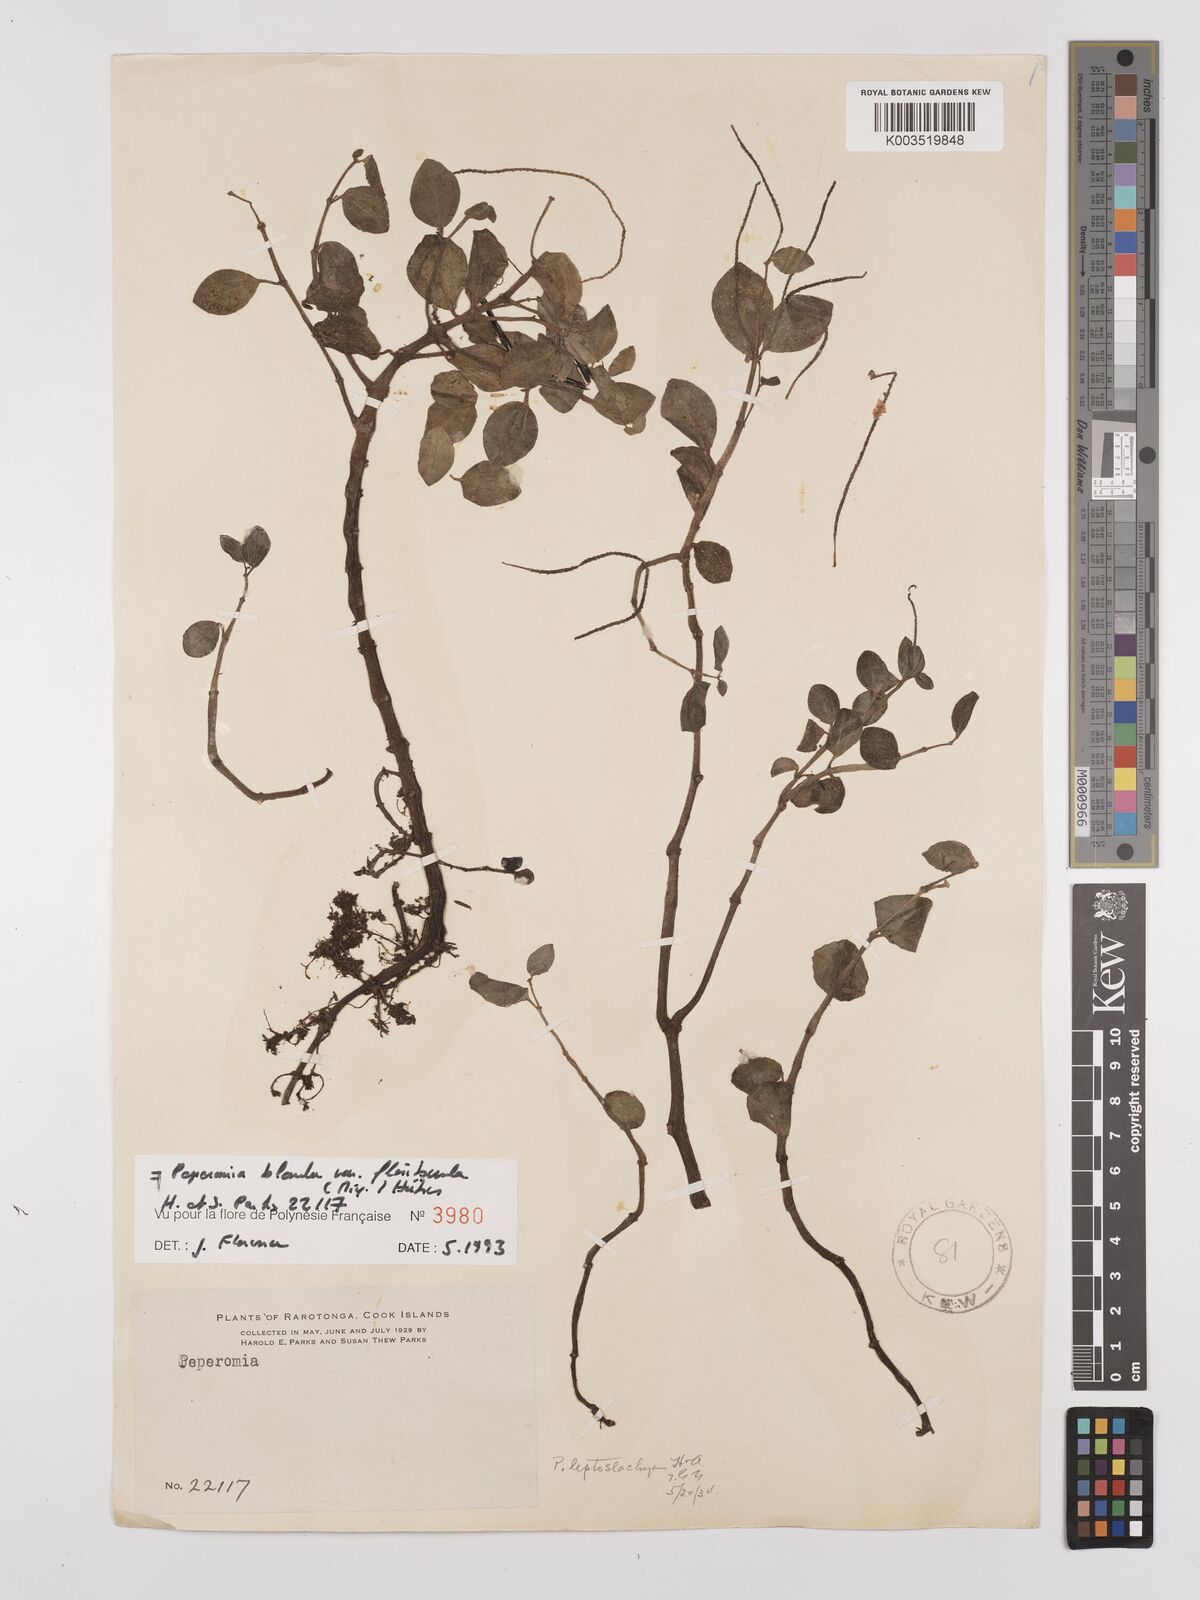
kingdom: Plantae
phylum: Tracheophyta
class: Magnoliopsida
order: Piperales
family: Piperaceae
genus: Peperomia
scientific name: Peperomia leptostachya
